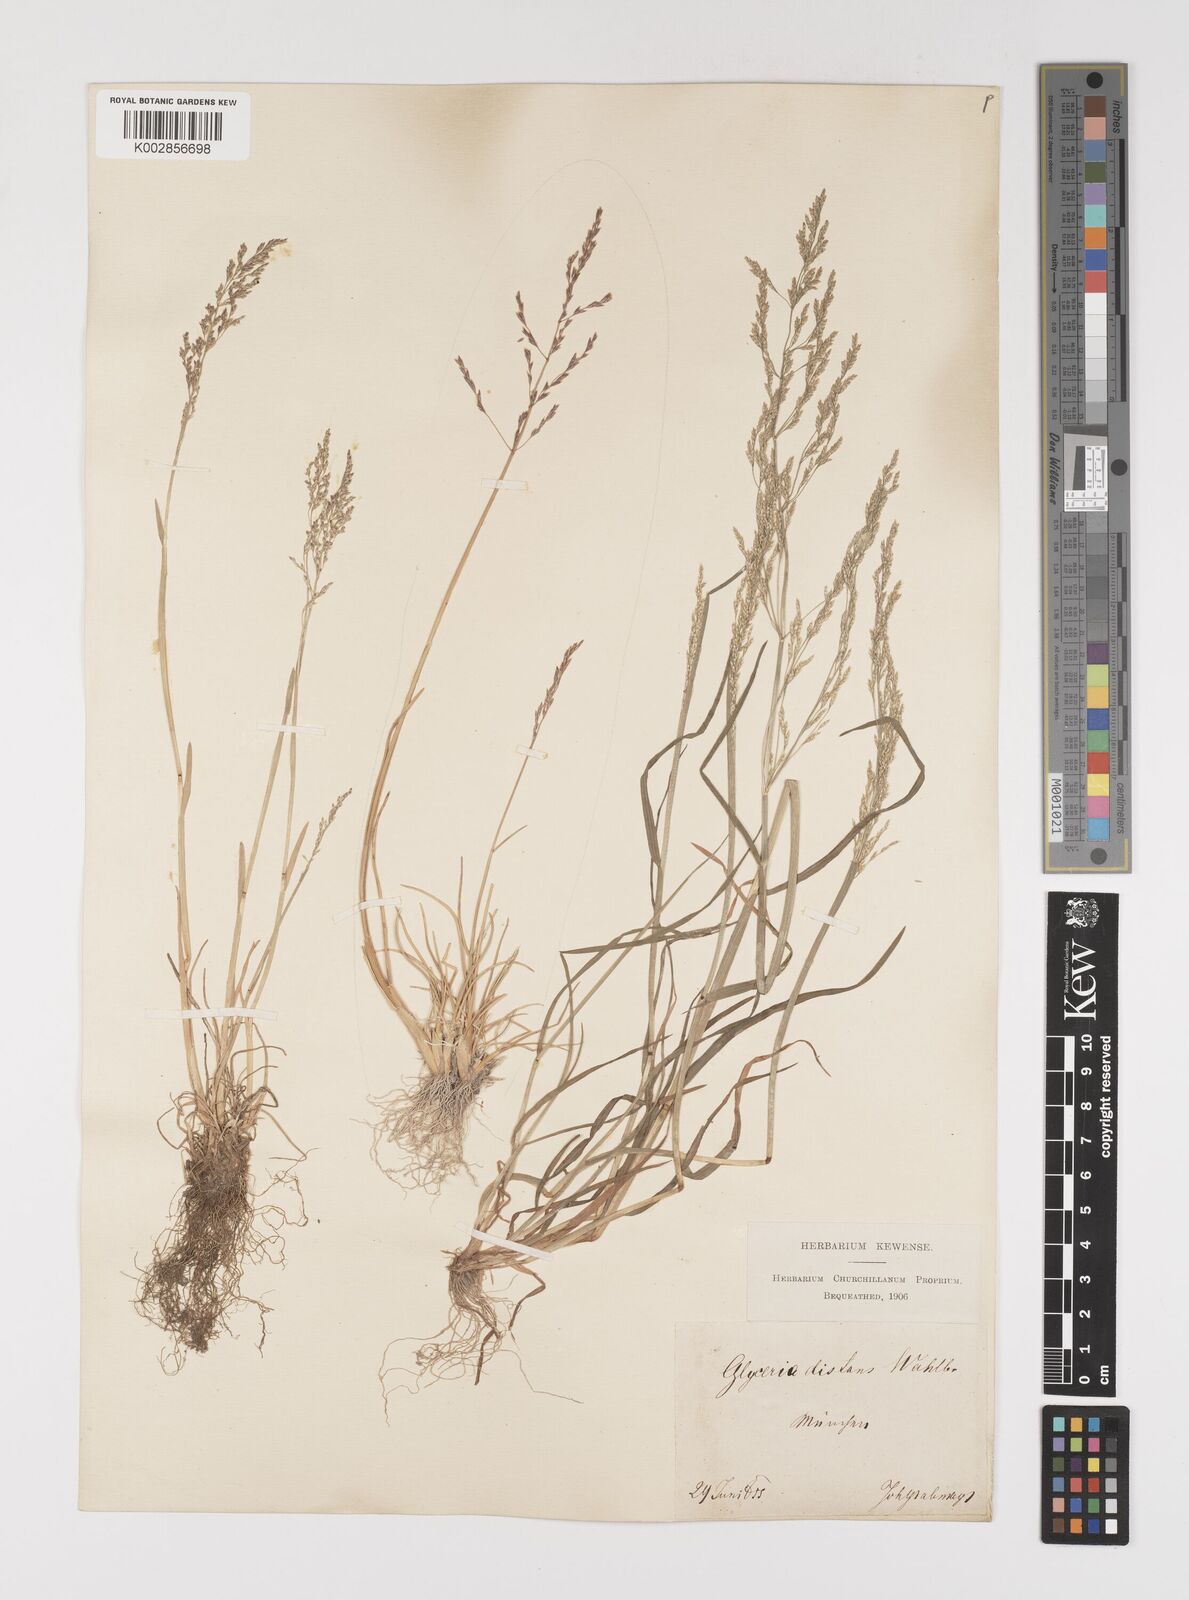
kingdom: Plantae
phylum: Tracheophyta
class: Liliopsida
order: Poales
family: Poaceae
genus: Puccinellia
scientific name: Puccinellia distans
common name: Weeping alkaligrass
